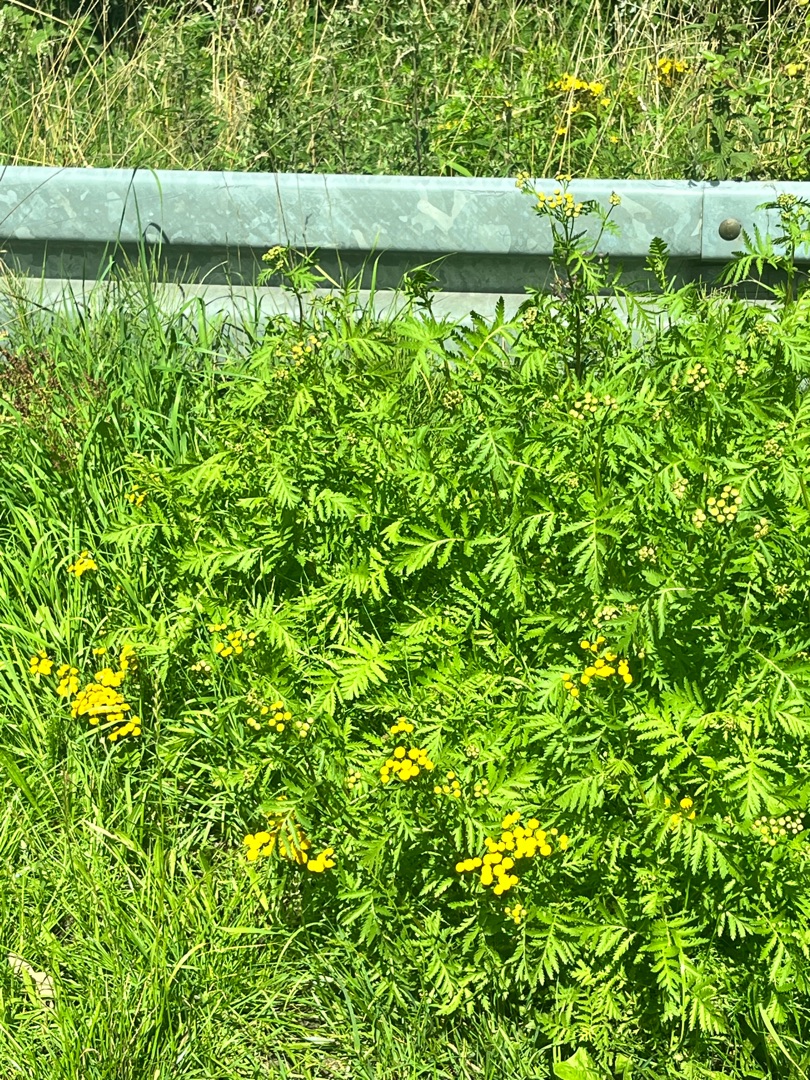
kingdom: Plantae
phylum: Tracheophyta
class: Magnoliopsida
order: Asterales
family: Asteraceae
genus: Tanacetum
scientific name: Tanacetum vulgare
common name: Rejnfan
